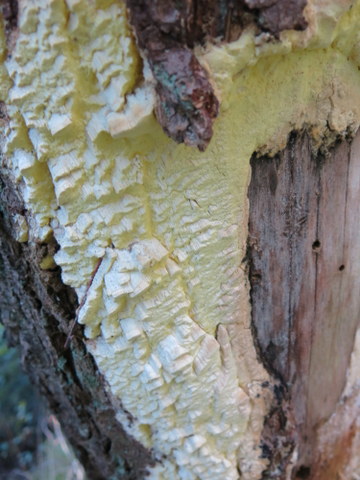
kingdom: Fungi
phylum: Basidiomycota
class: Agaricomycetes
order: Polyporales
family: Fomitopsidaceae
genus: Daedalea
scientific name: Daedalea xantha
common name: gul sejporesvamp
